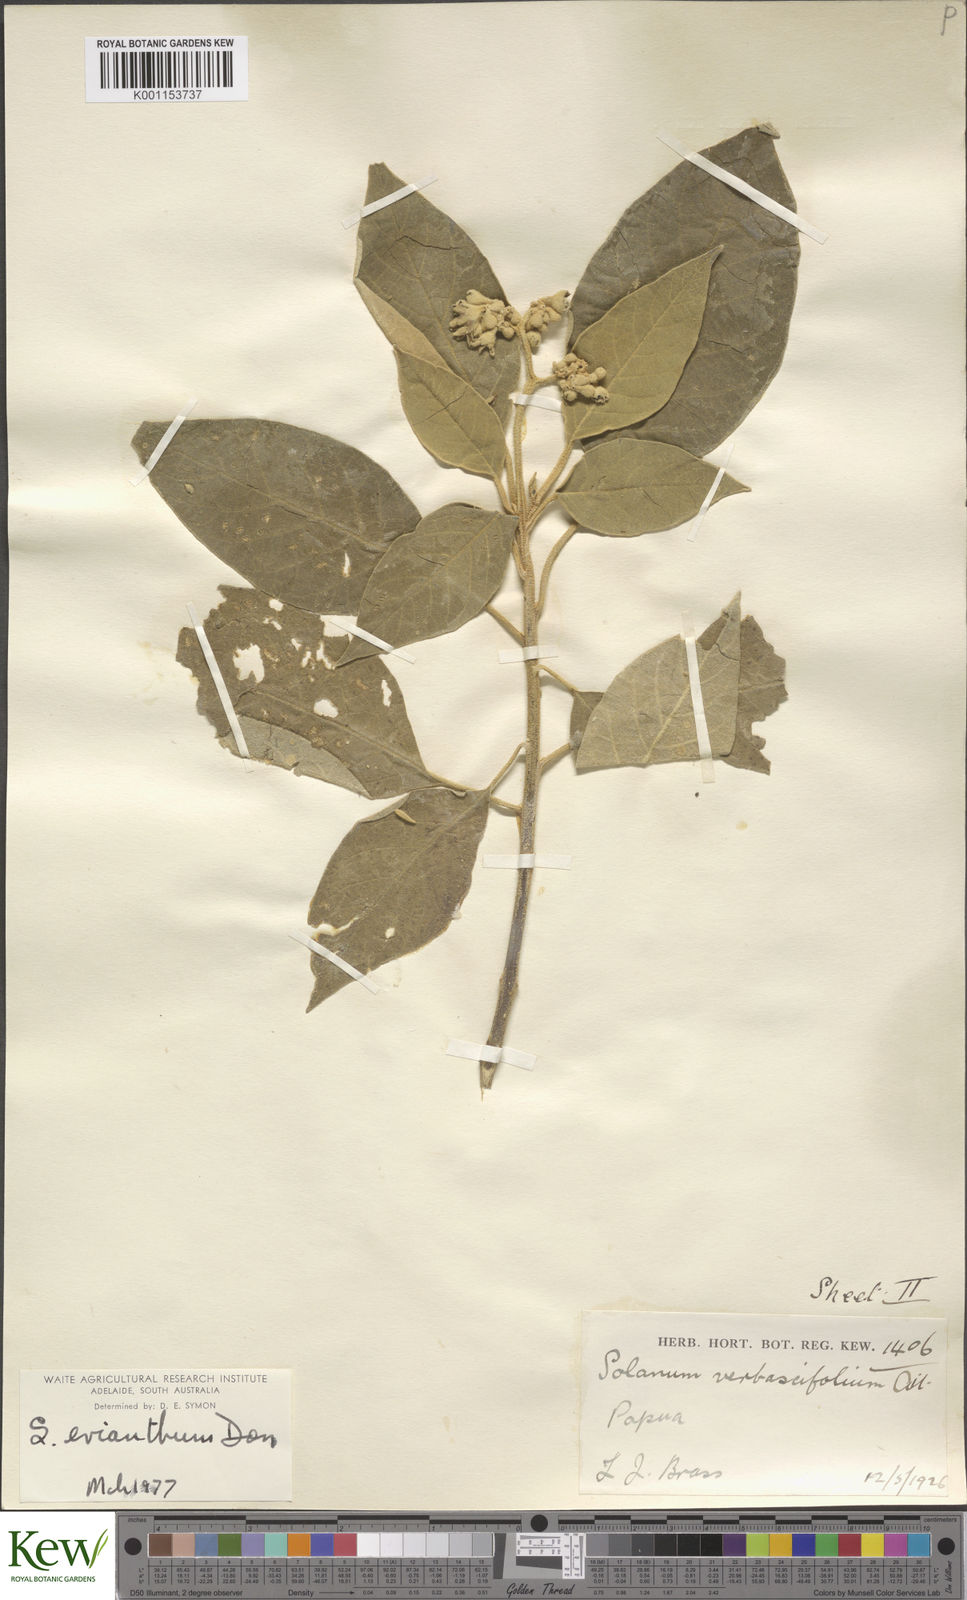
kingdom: Plantae
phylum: Tracheophyta
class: Magnoliopsida
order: Solanales
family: Solanaceae
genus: Solanum
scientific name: Solanum erianthum
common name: Tobacco-tree
